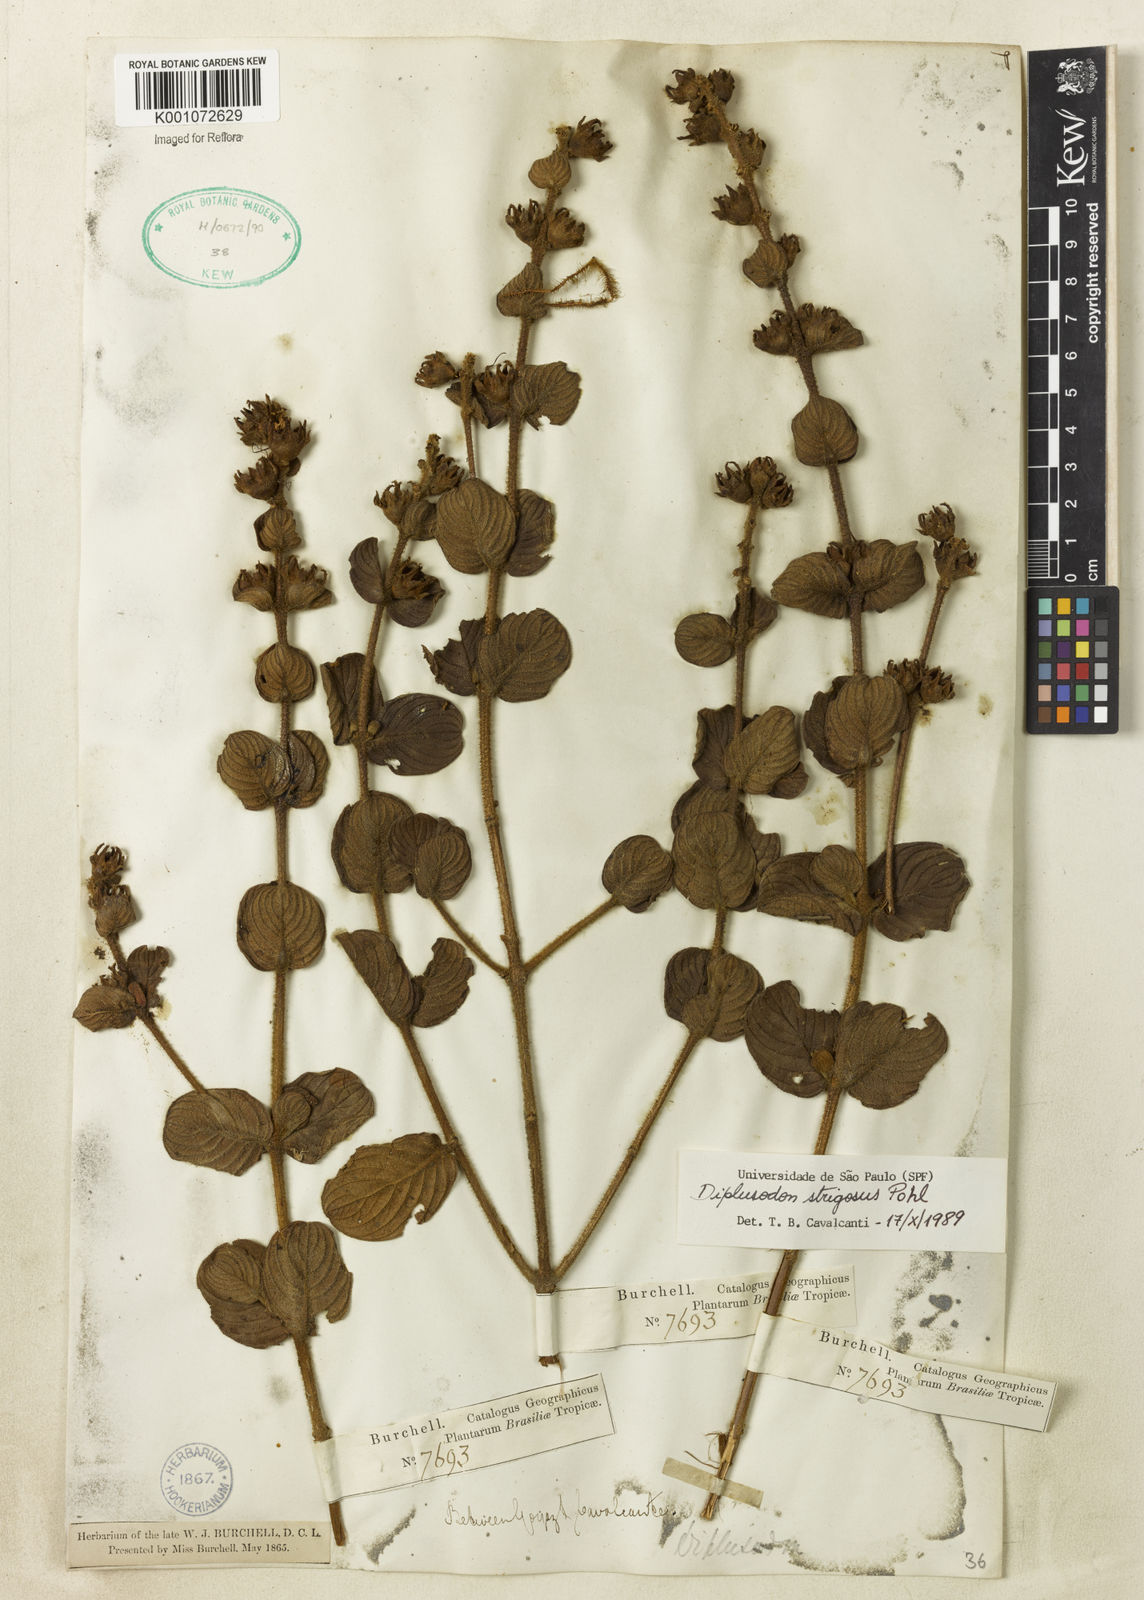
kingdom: Plantae
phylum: Tracheophyta
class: Magnoliopsida
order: Myrtales
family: Lythraceae
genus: Diplusodon
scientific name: Diplusodon strigosus
